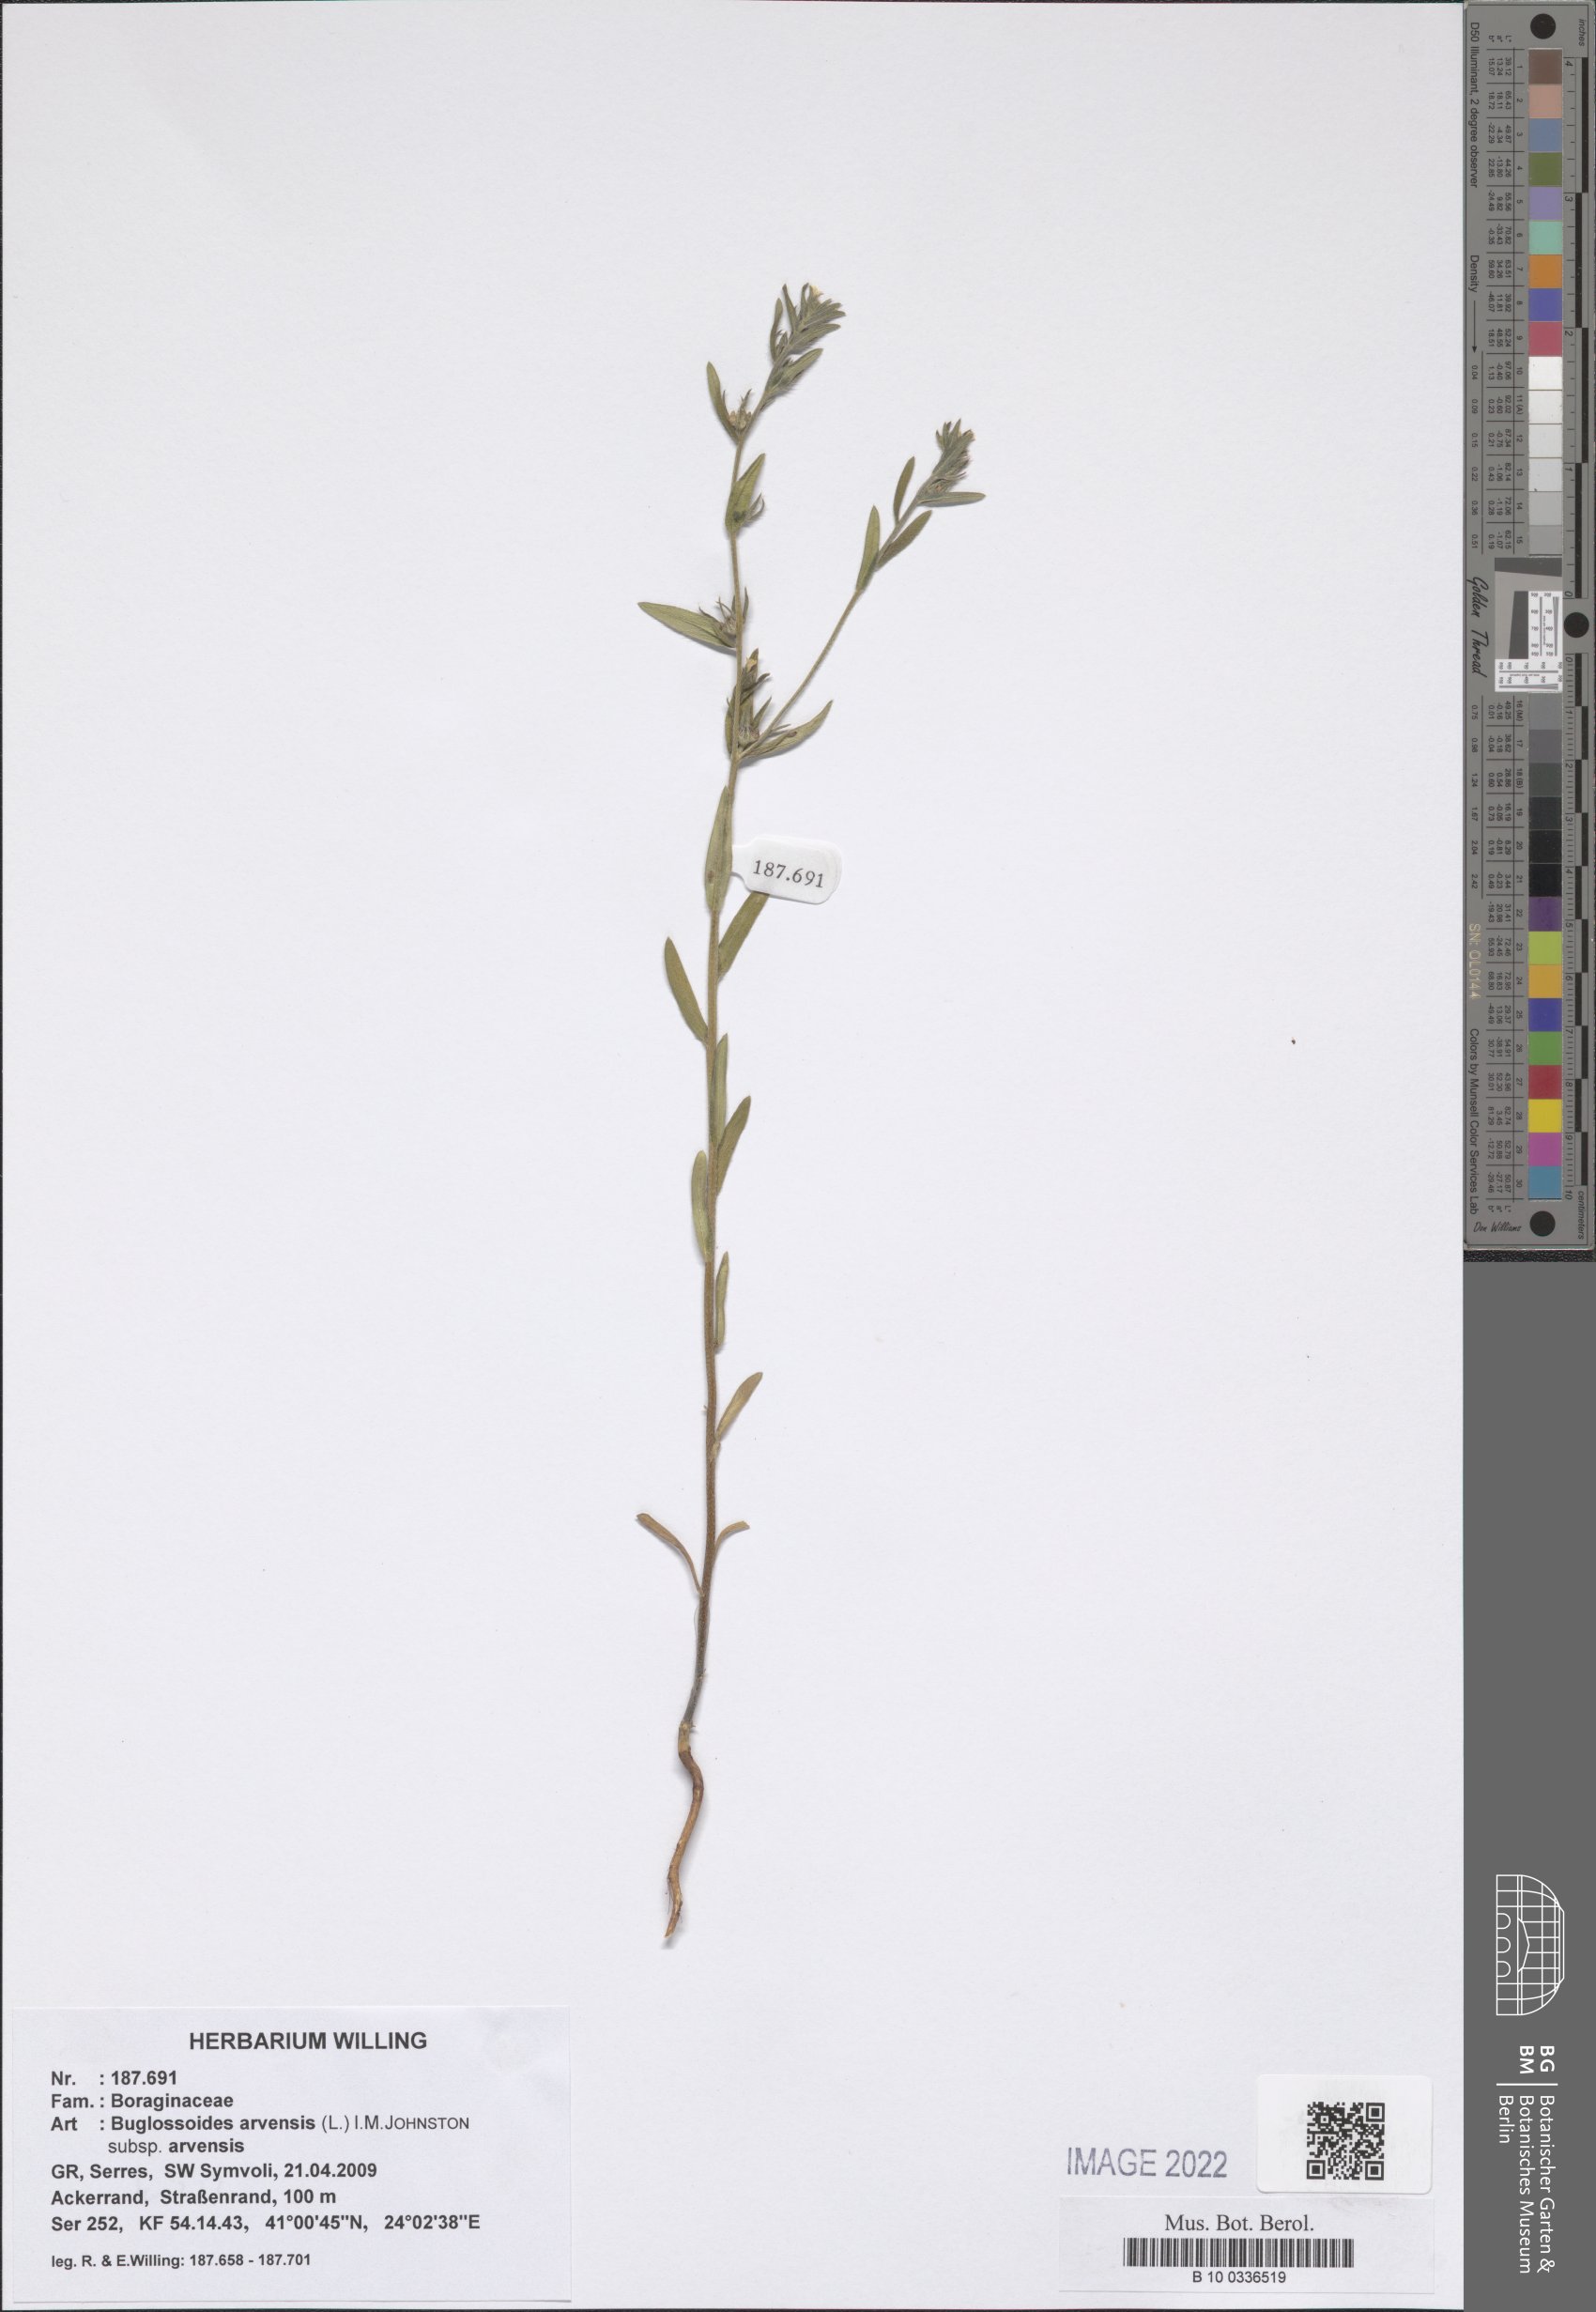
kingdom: Plantae
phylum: Tracheophyta
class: Magnoliopsida
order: Boraginales
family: Boraginaceae
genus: Buglossoides
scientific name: Buglossoides arvensis
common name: Corn gromwell
